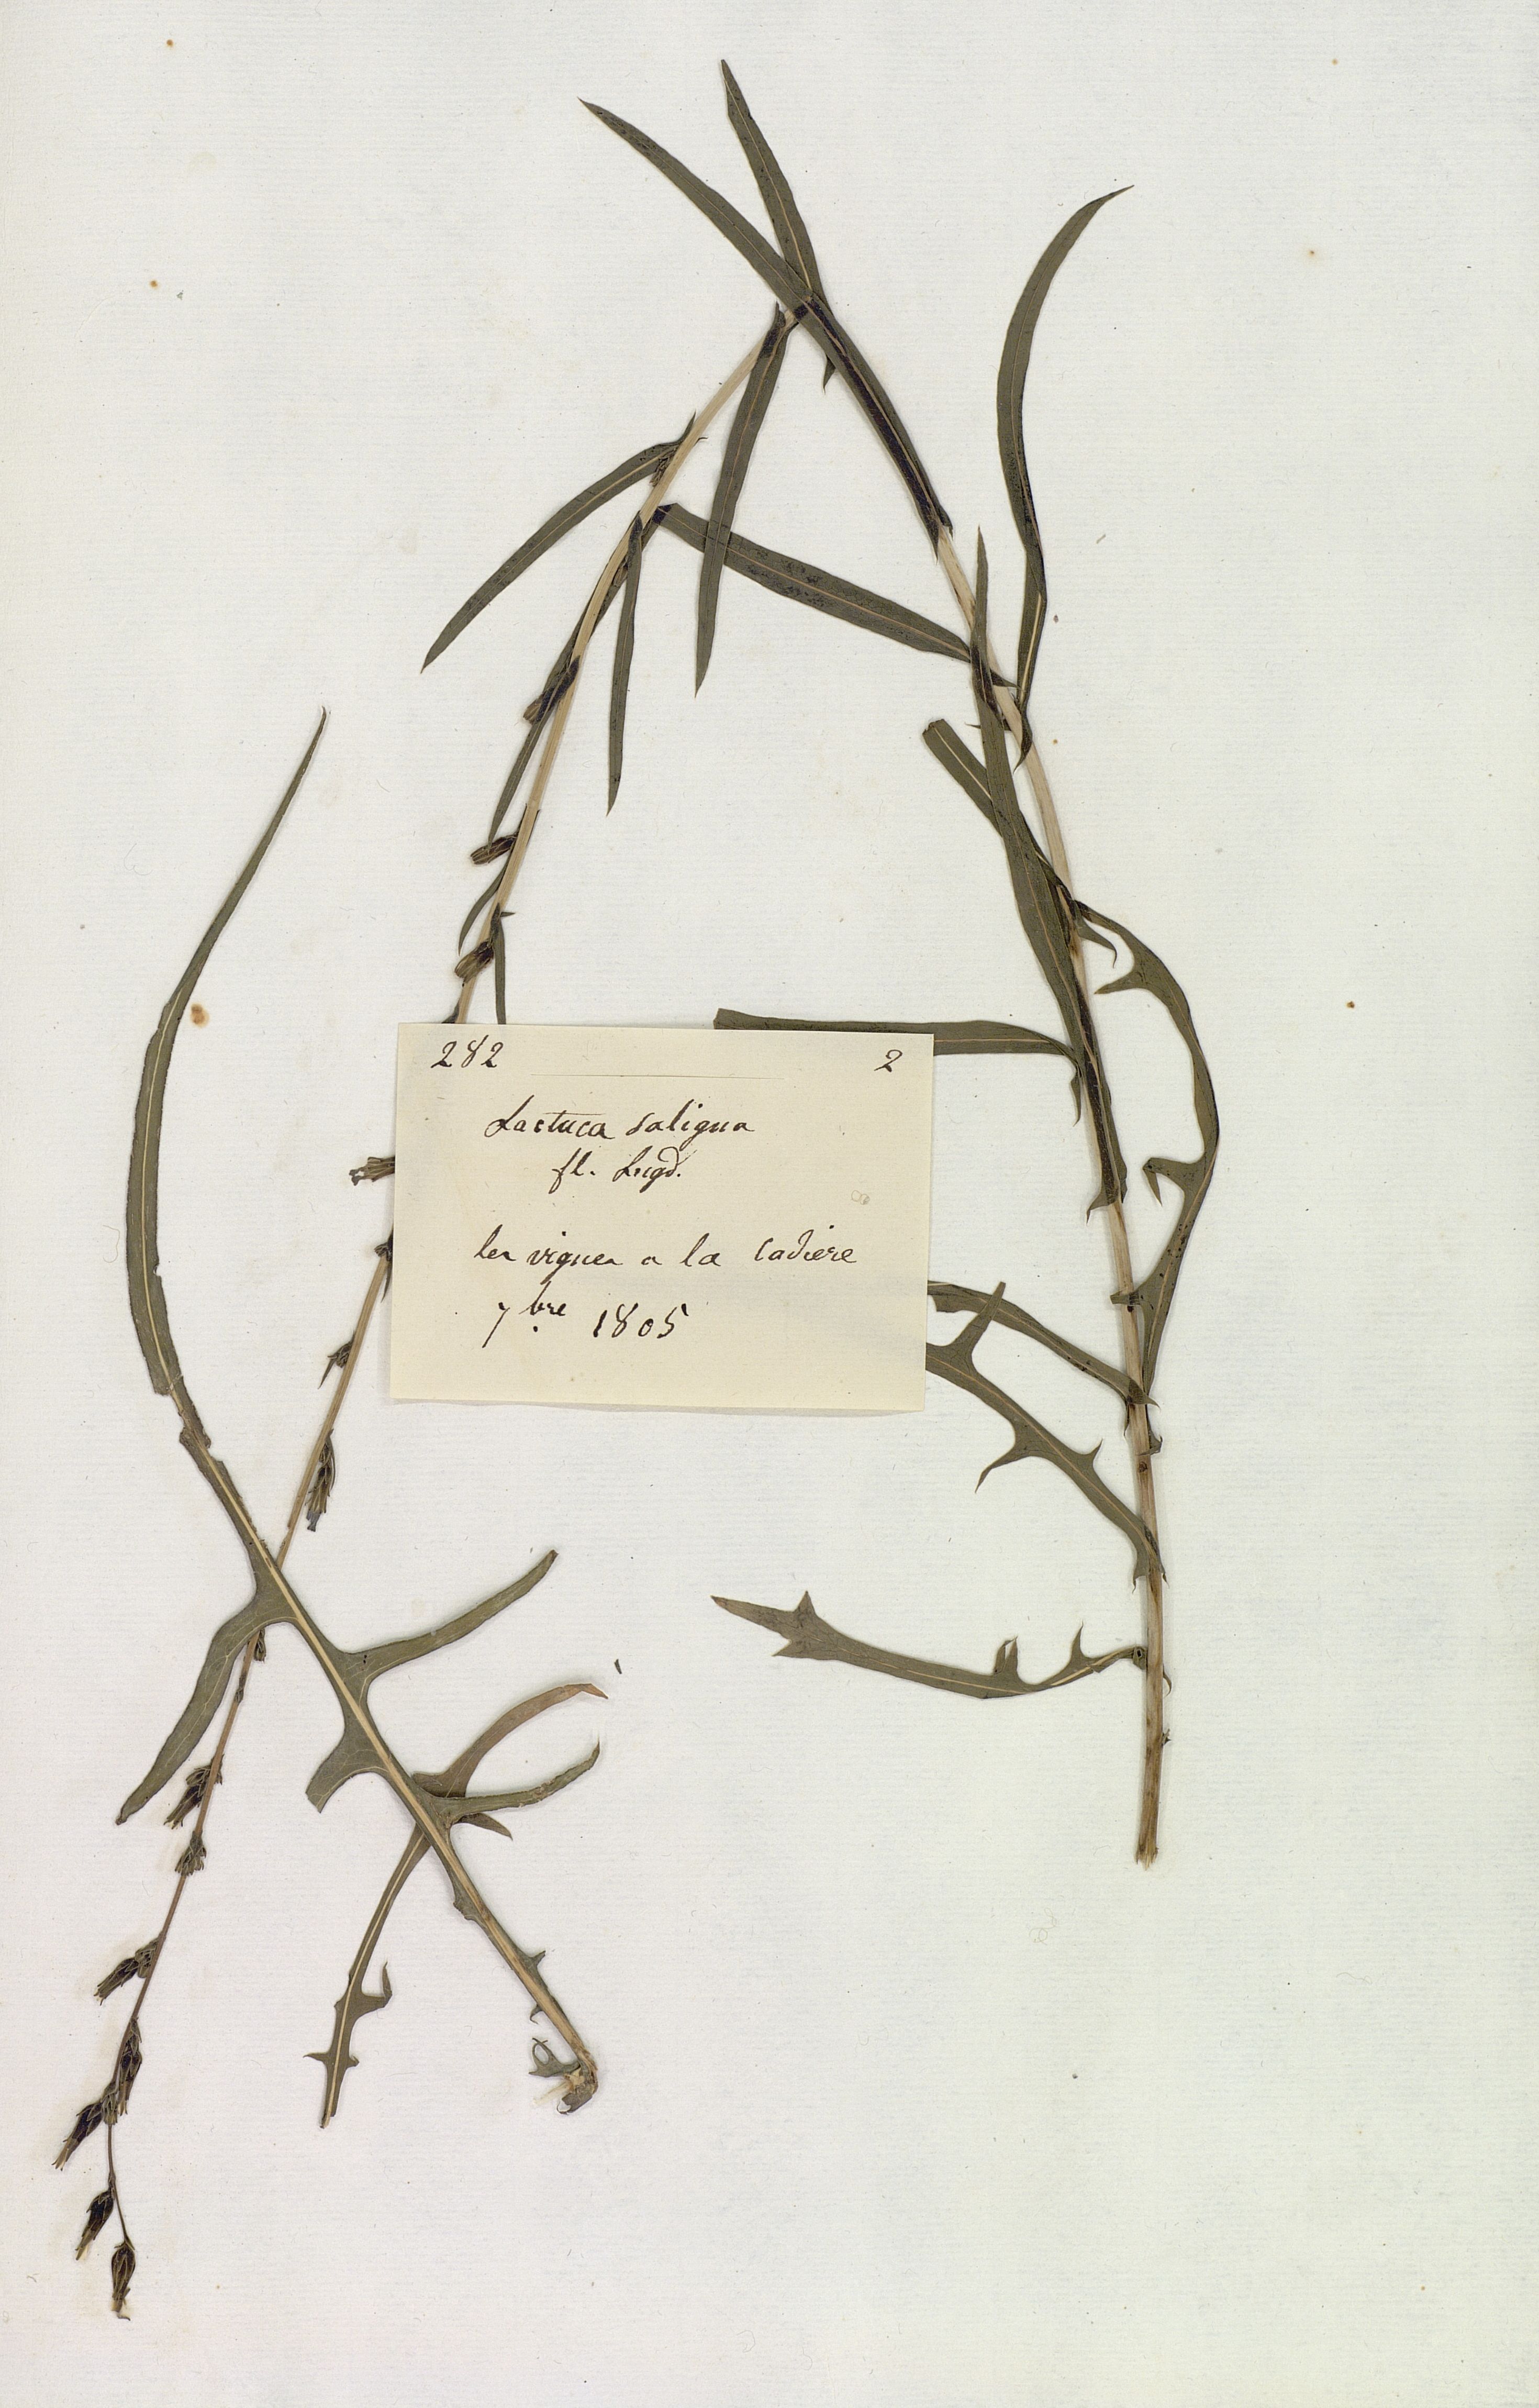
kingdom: Plantae
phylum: Tracheophyta
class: Magnoliopsida
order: Asterales
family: Asteraceae
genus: Lactuca
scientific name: Lactuca saligna
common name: Wild lettuce
